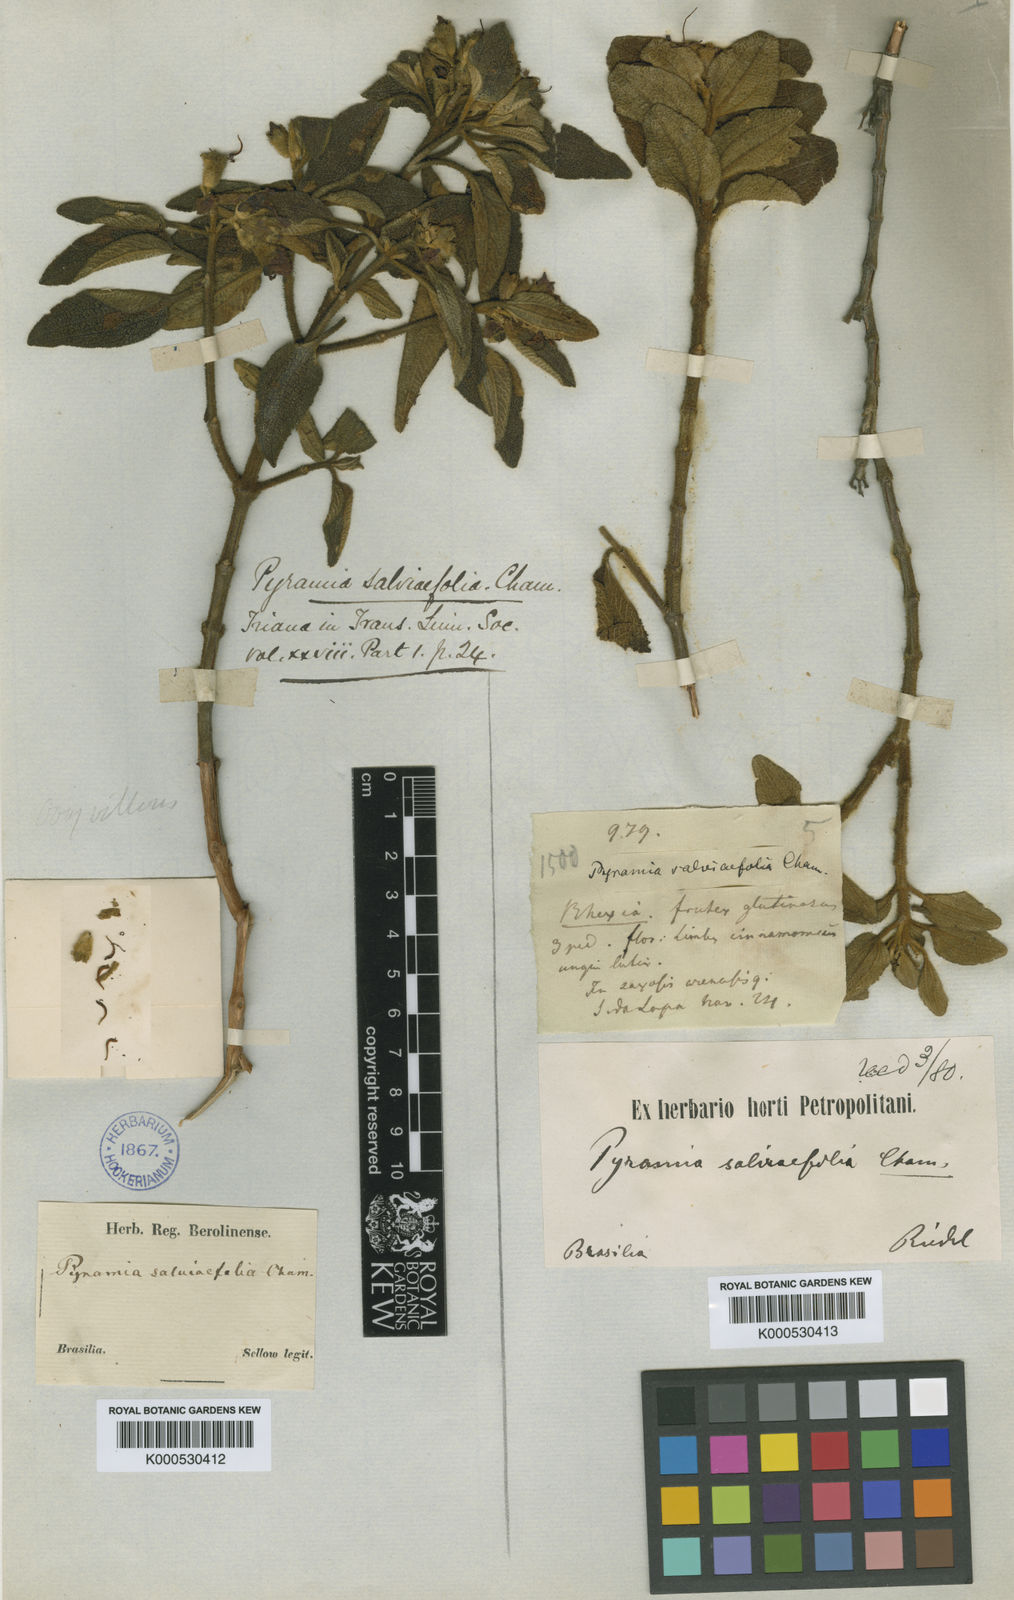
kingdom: Plantae
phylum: Tracheophyta
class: Magnoliopsida
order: Myrtales
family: Melastomataceae
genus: Cambessedesia
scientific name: Cambessedesia salviifolia
